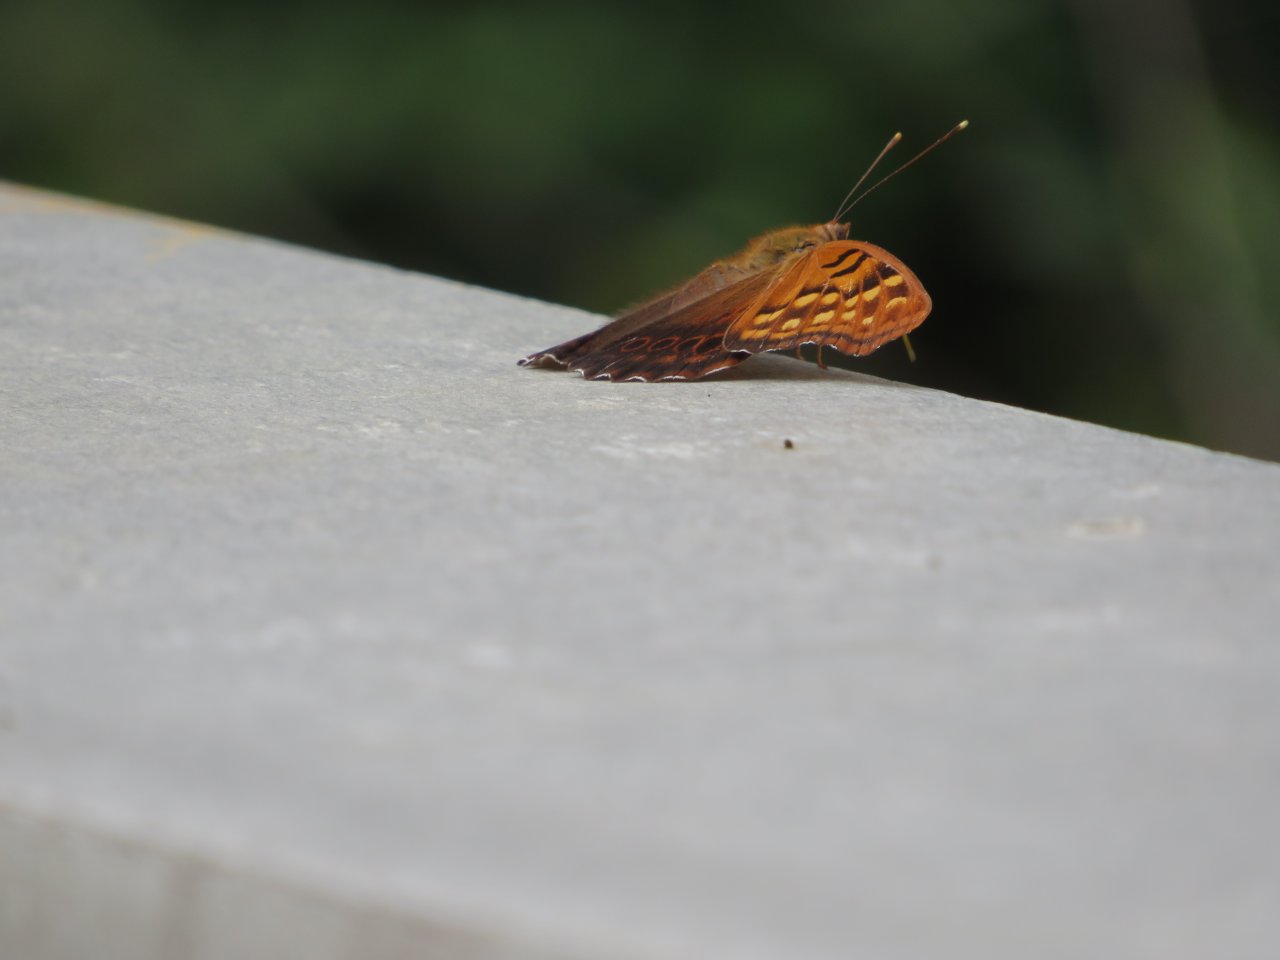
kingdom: Animalia
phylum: Arthropoda
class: Insecta
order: Lepidoptera
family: Nymphalidae
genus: Asterocampa
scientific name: Asterocampa clyton
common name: Tawny Emperor
